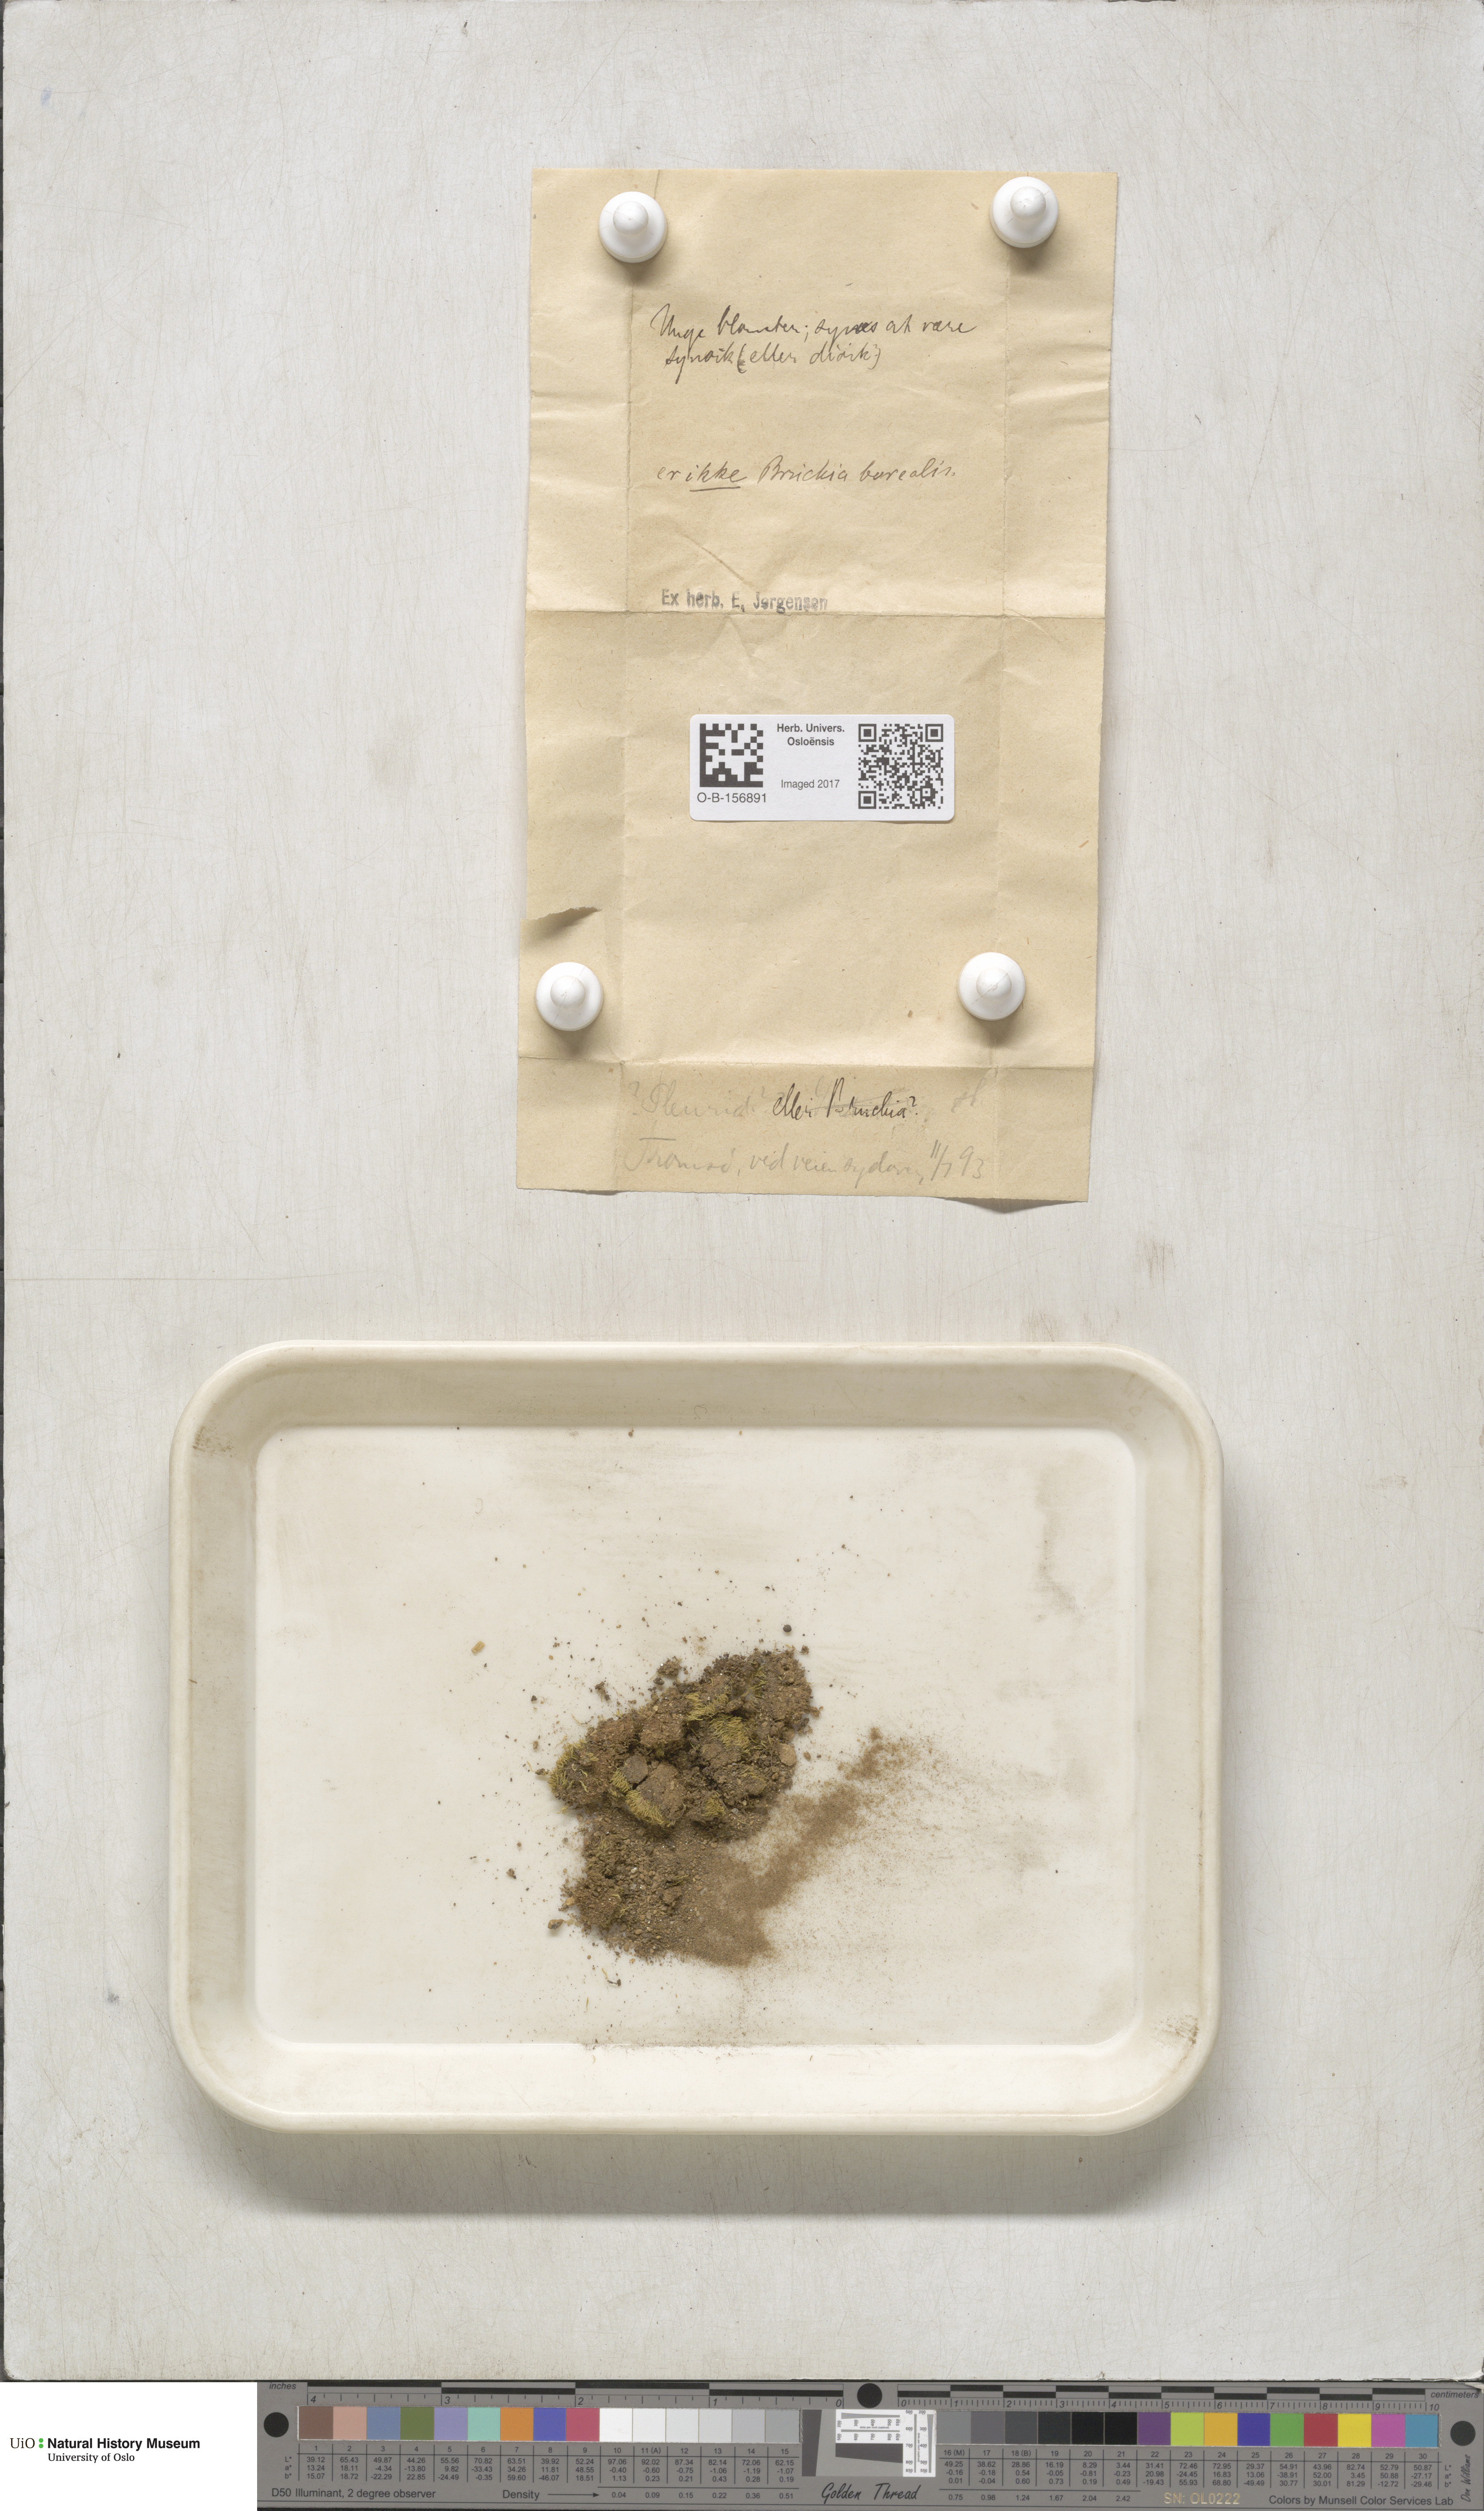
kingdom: Plantae
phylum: Bryophyta
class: Bryopsida
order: Dicranales
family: Ditrichaceae
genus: Pleuridium
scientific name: Pleuridium subulatum
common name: Awl-leaved earth-moss
